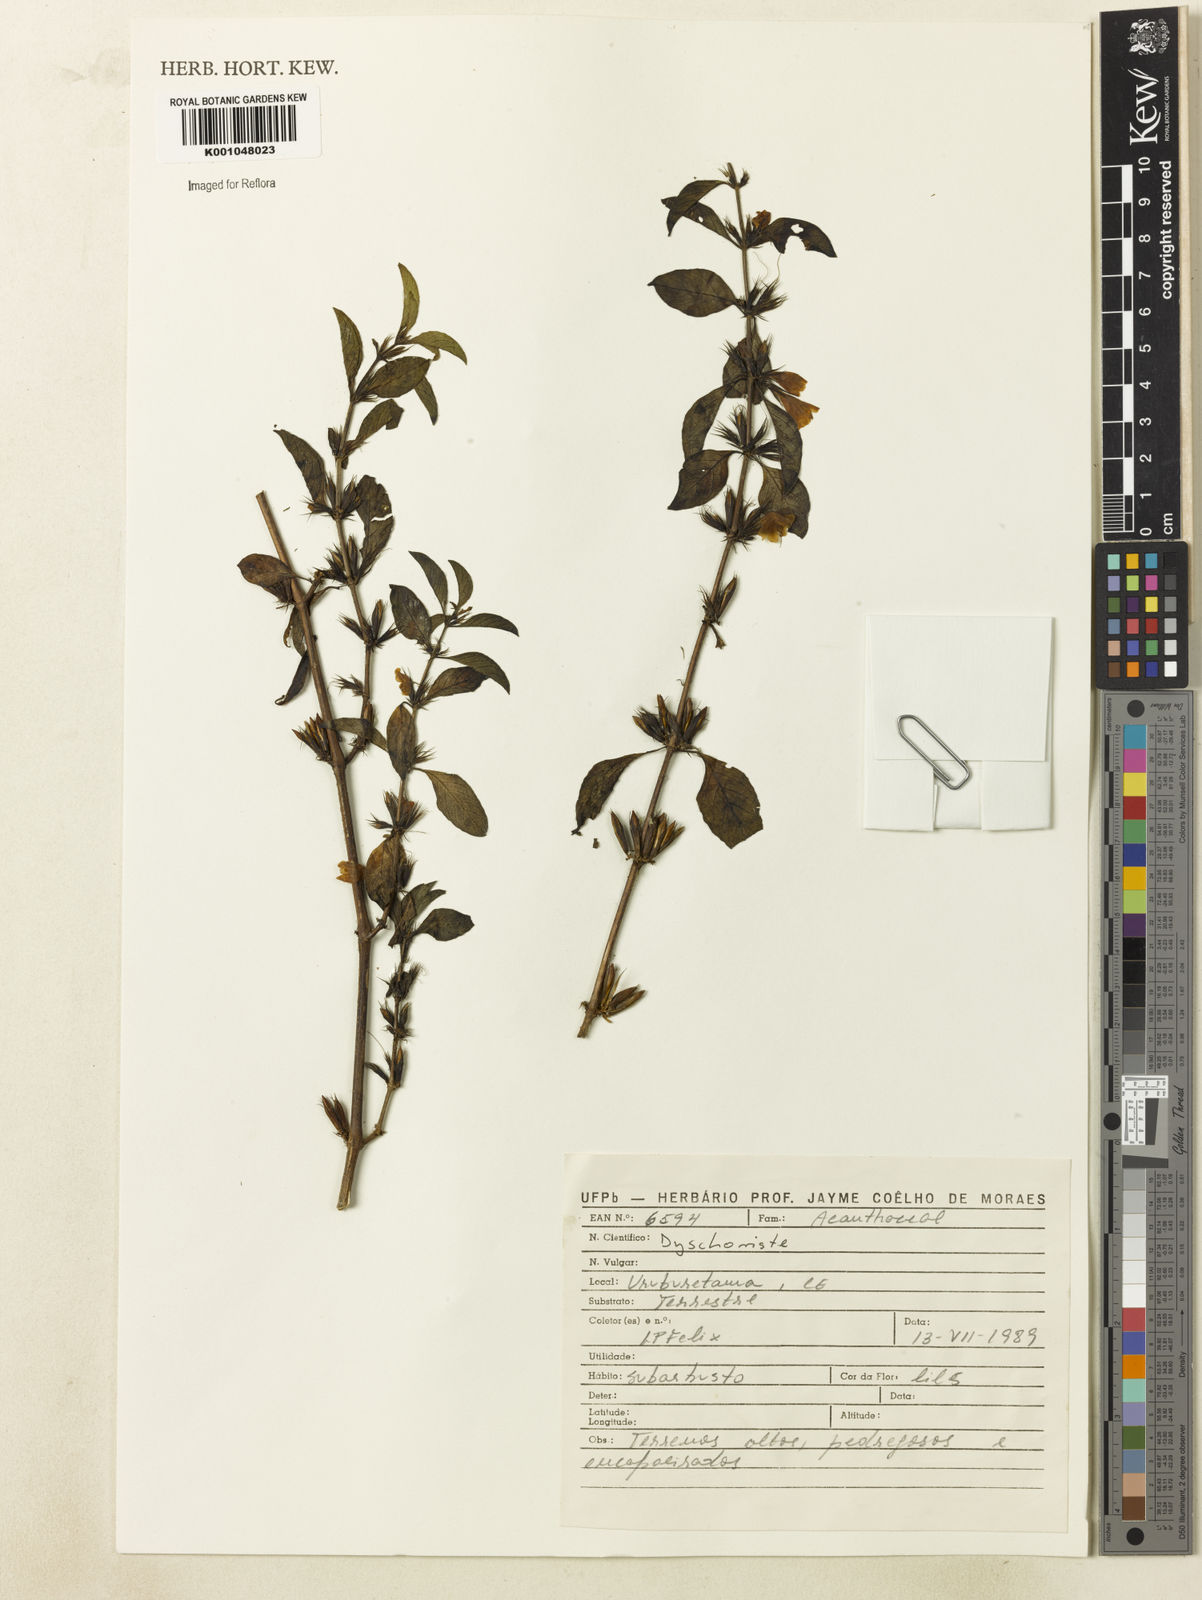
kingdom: Plantae
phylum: Tracheophyta
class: Magnoliopsida
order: Lamiales
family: Acanthaceae
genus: Dyschoriste
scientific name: Dyschoriste
